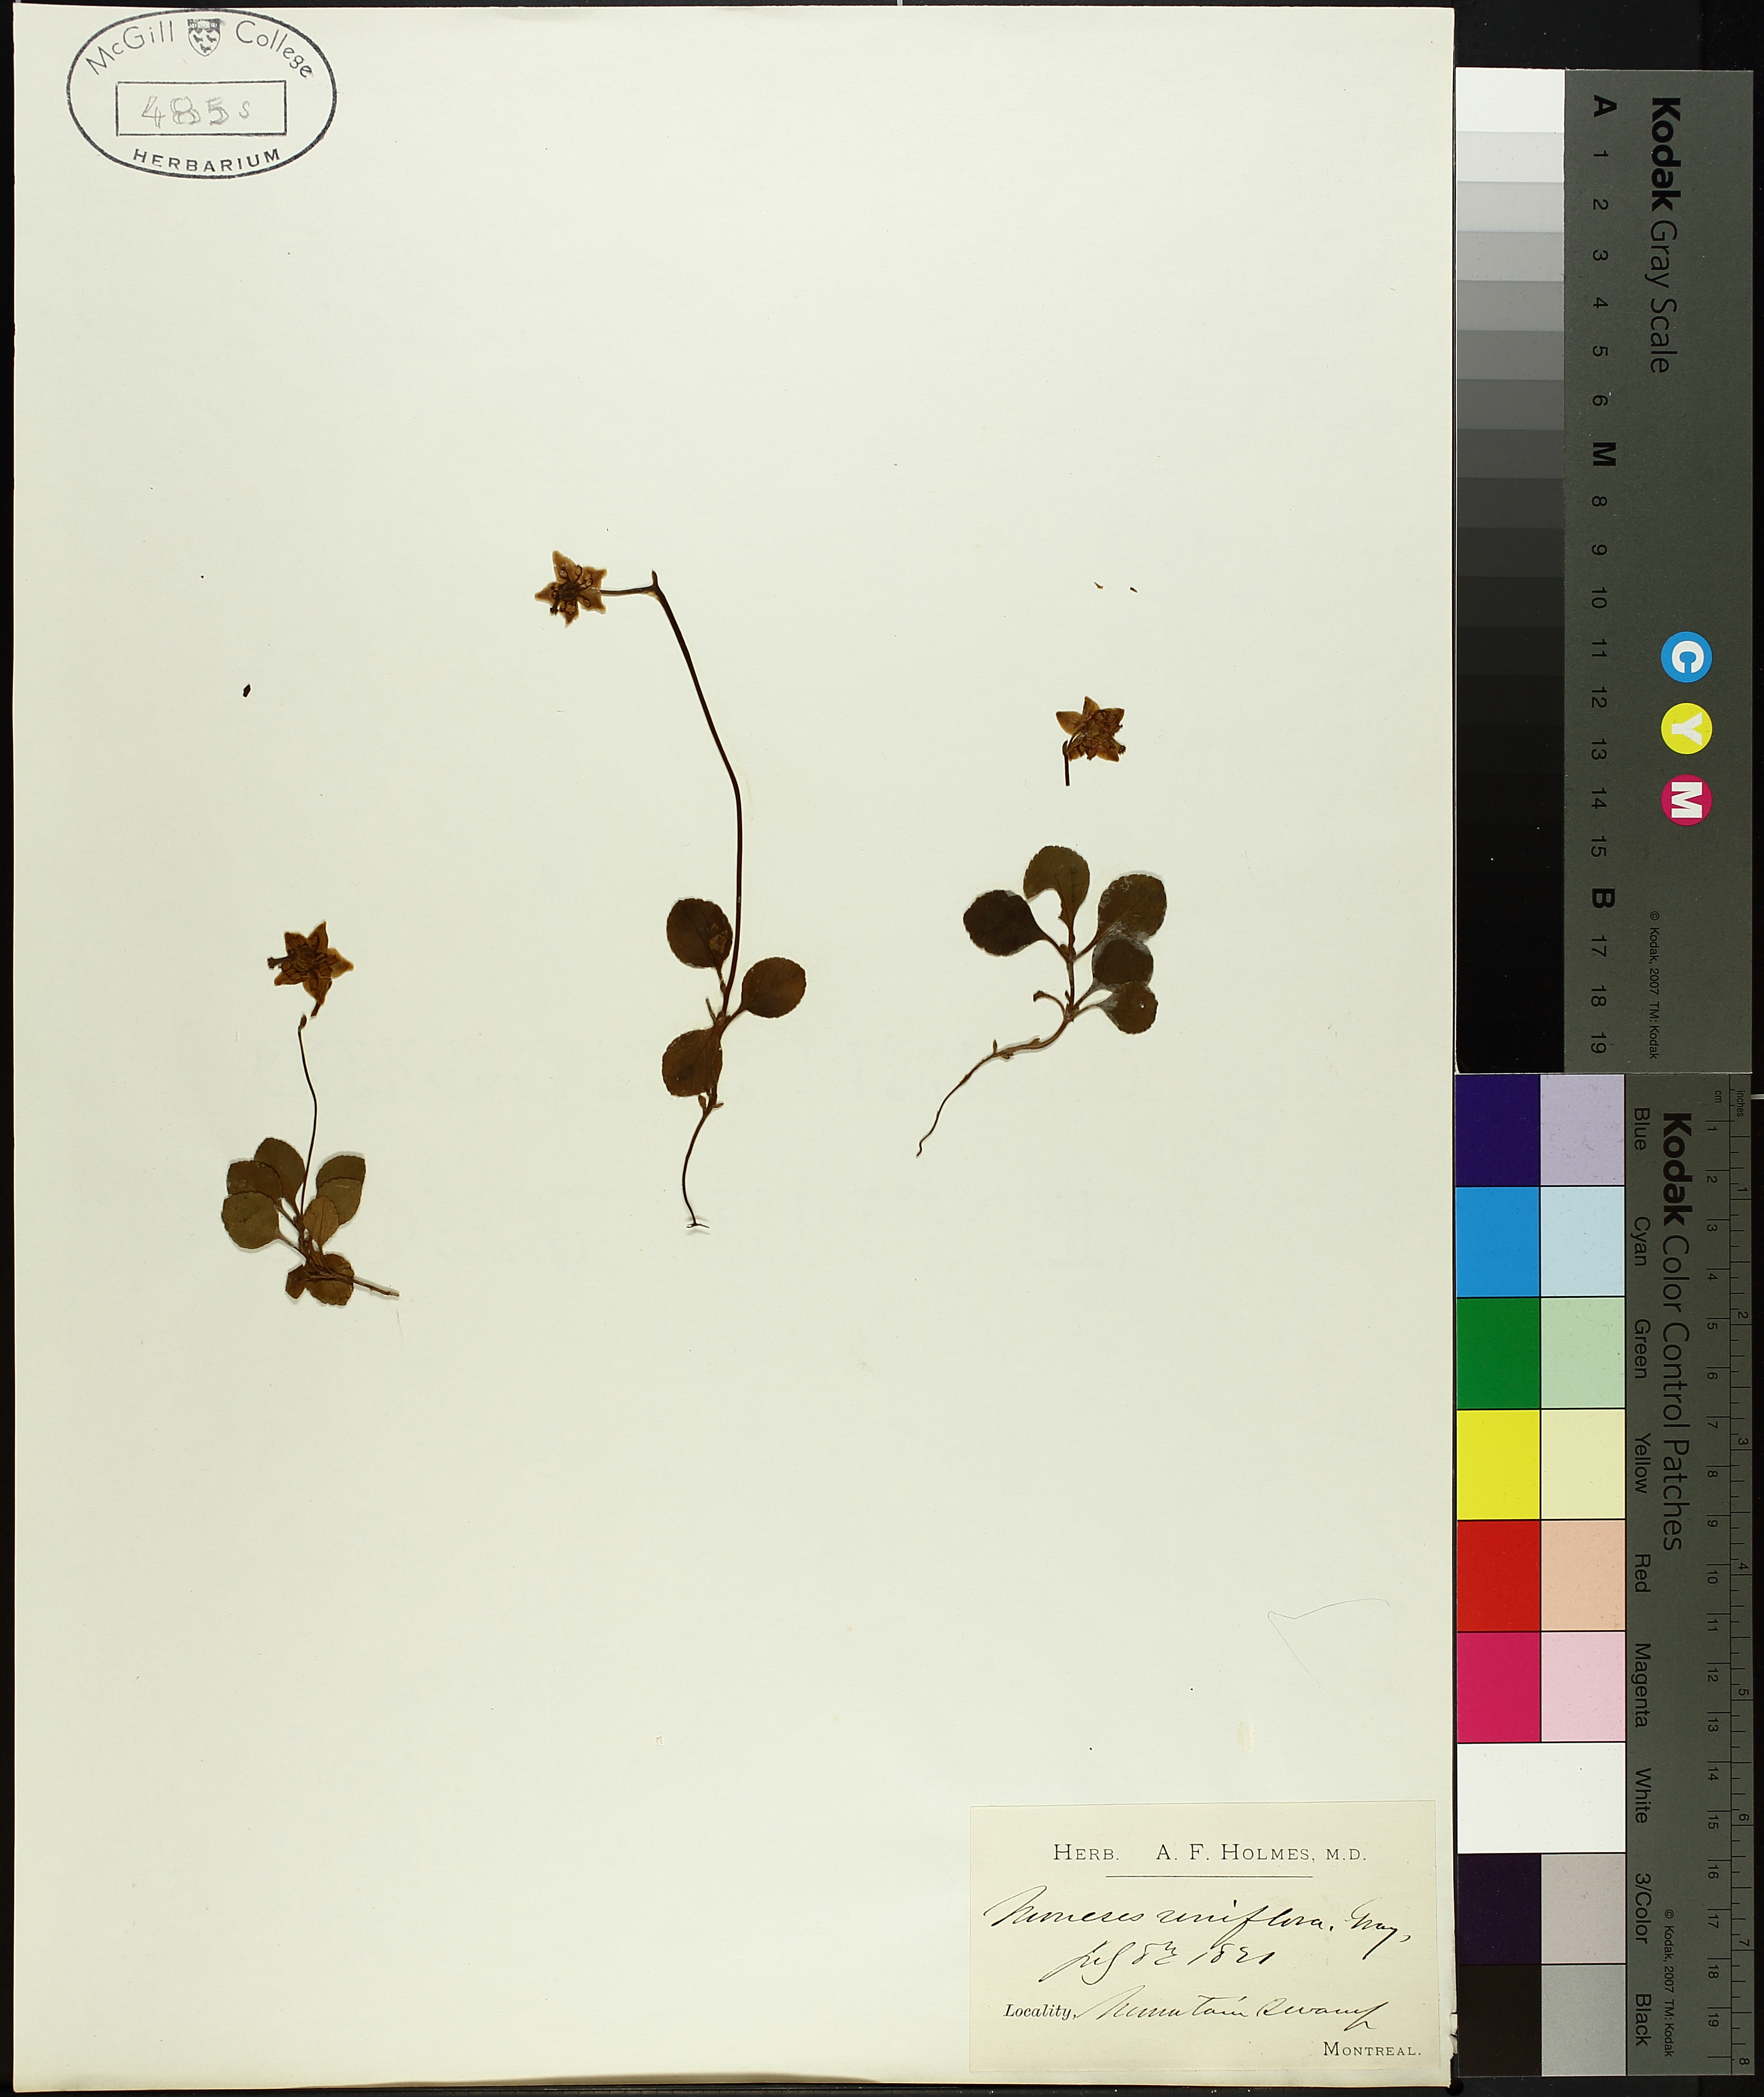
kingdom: Plantae
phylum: Tracheophyta
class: Magnoliopsida
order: Ericales
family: Ericaceae
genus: Moneses
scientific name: Moneses uniflora
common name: One-flowered wintergreen
